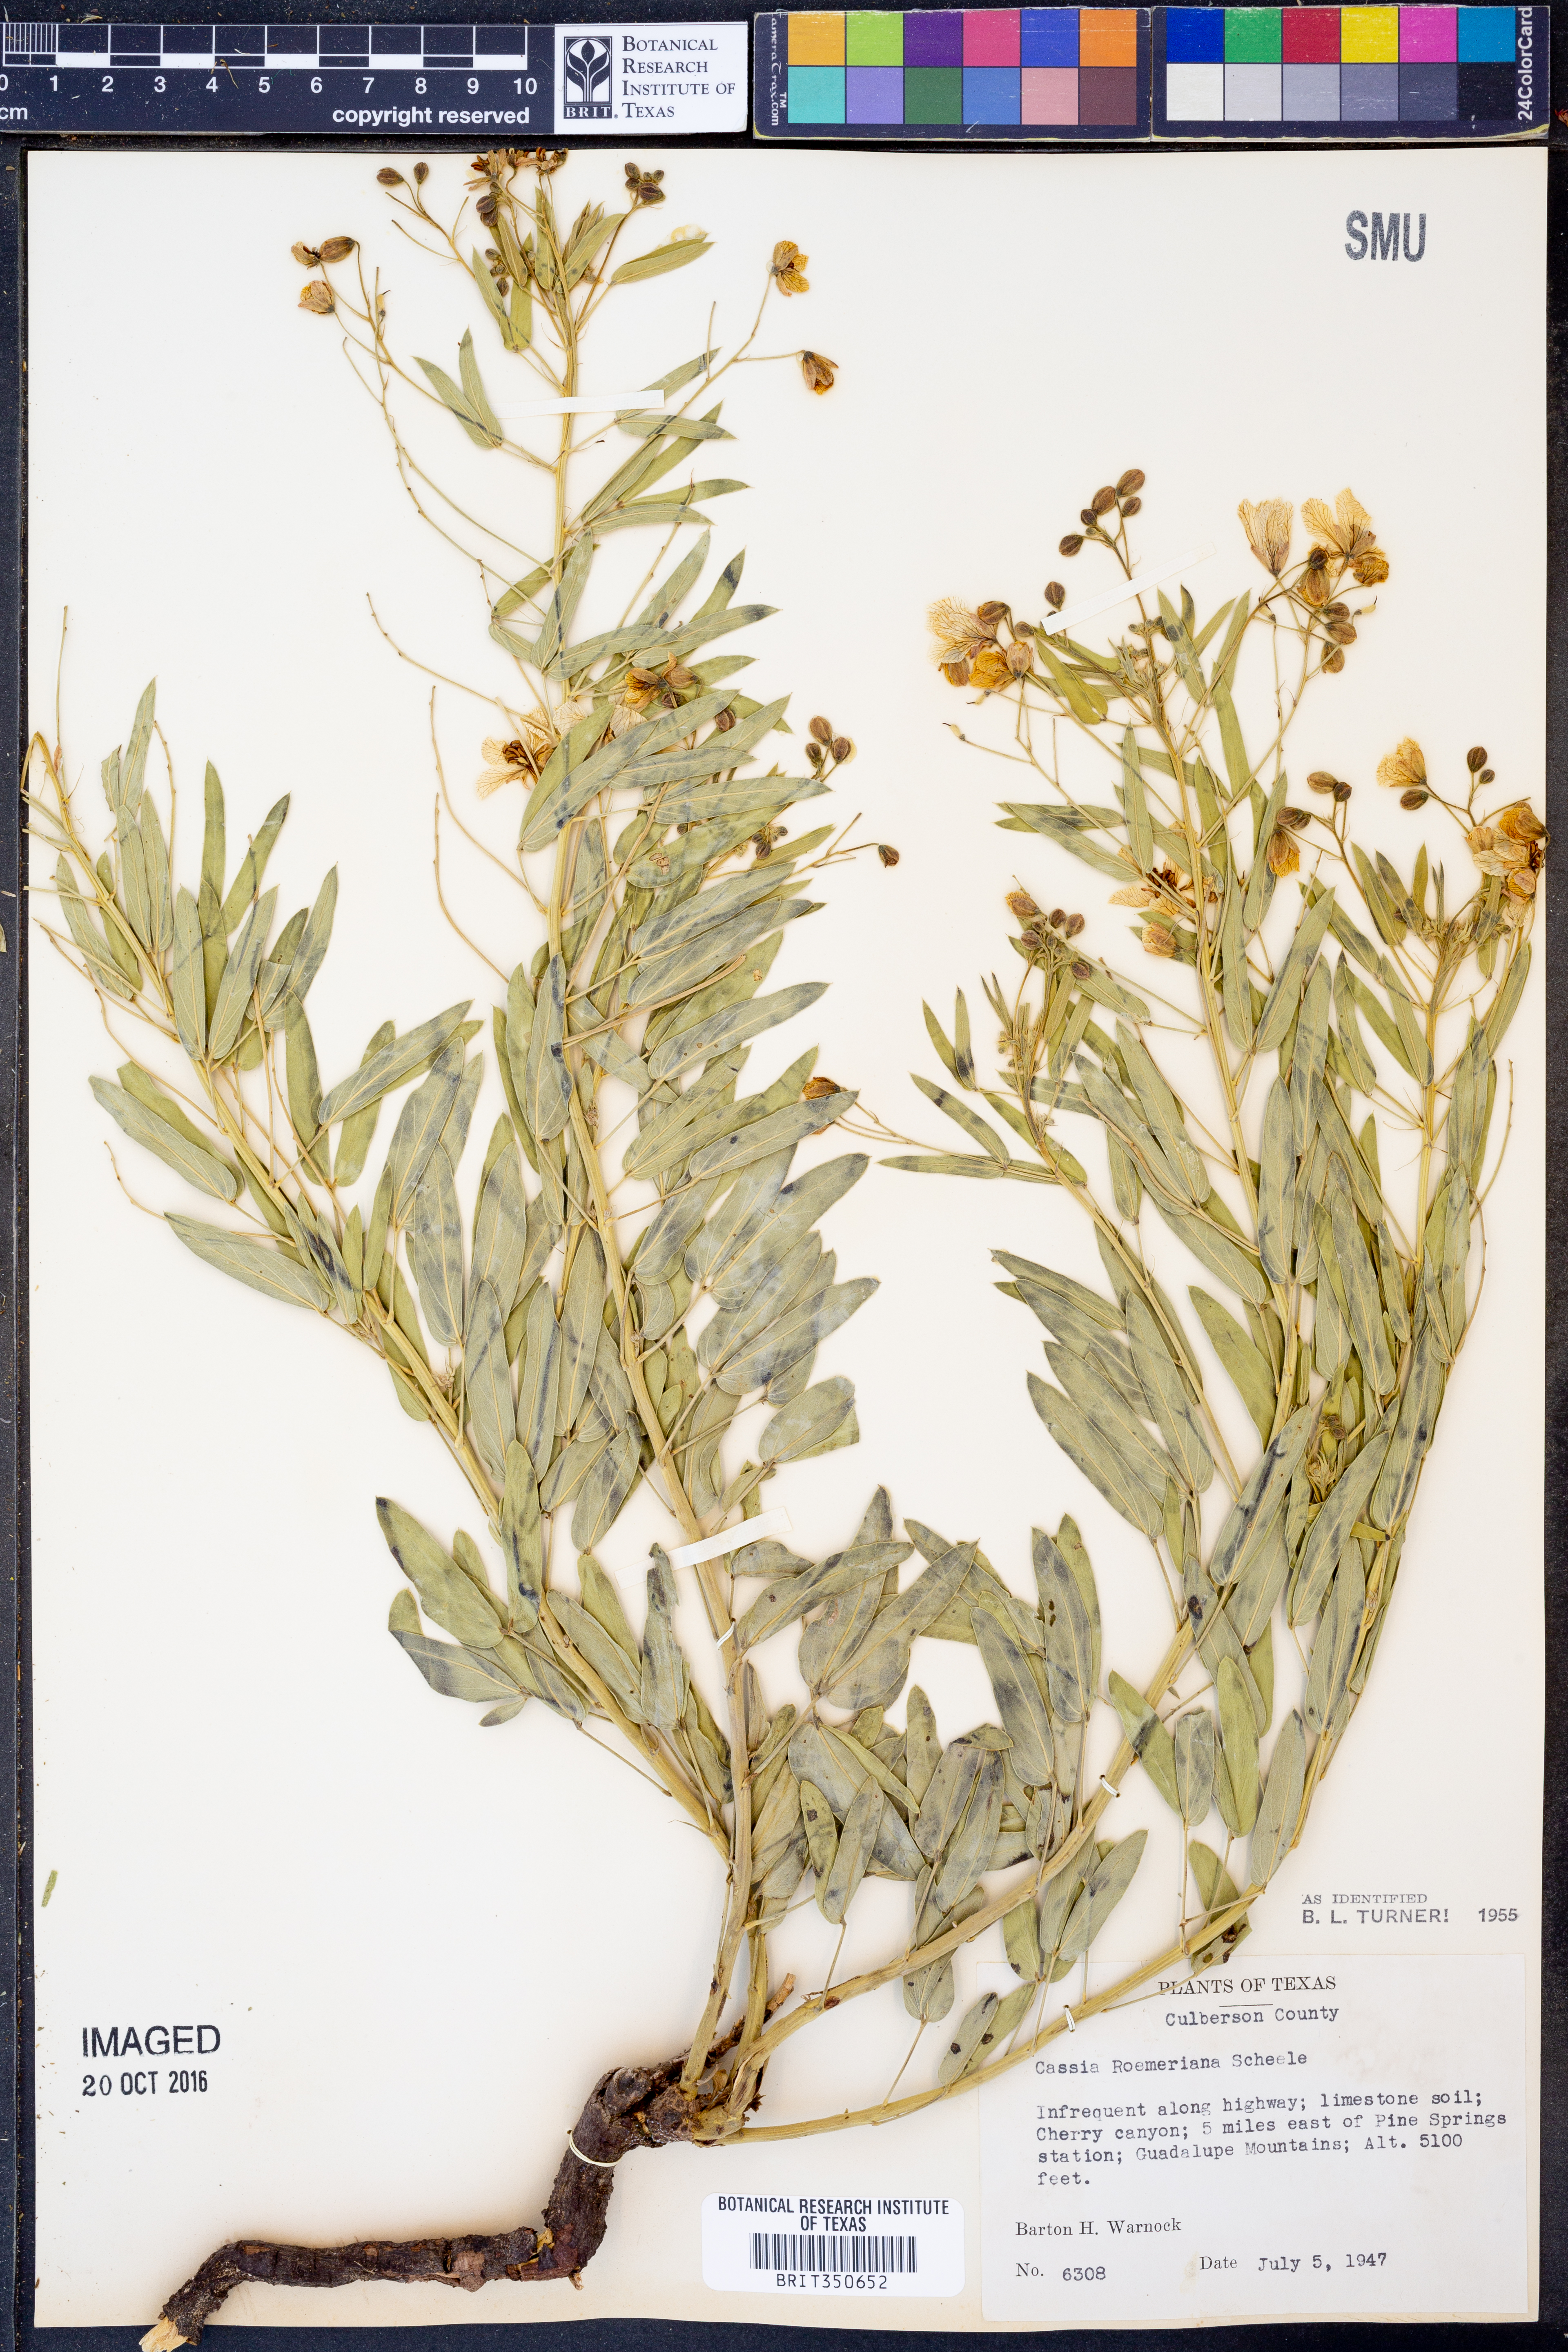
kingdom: Plantae
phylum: Tracheophyta
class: Magnoliopsida
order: Fabales
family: Fabaceae
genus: Senna
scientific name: Senna roemeriana
